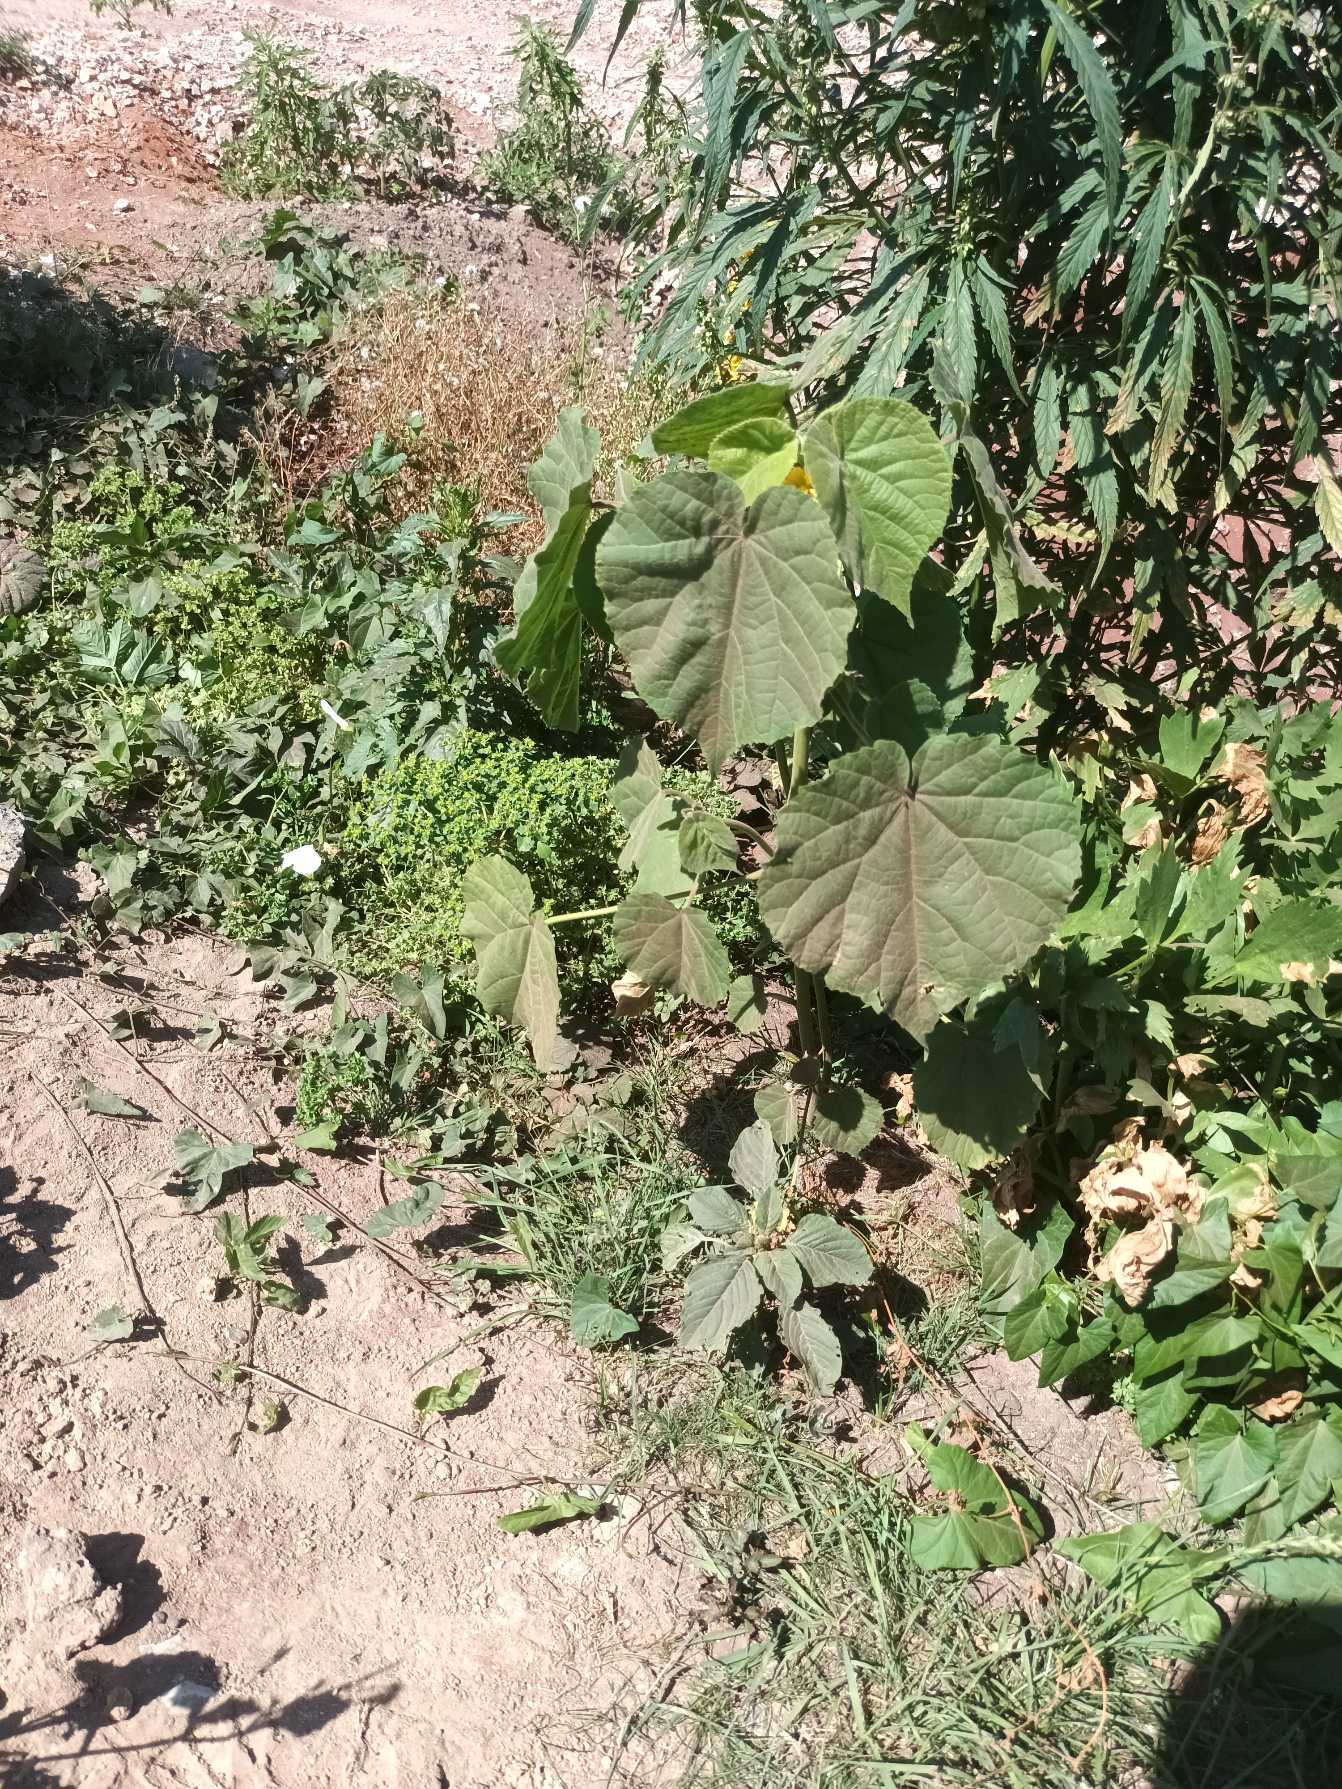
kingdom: Plantae
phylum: Tracheophyta
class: Magnoliopsida
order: Malvales
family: Malvaceae
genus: Abutilon
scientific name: Abutilon theophrasti
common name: Kinajute
